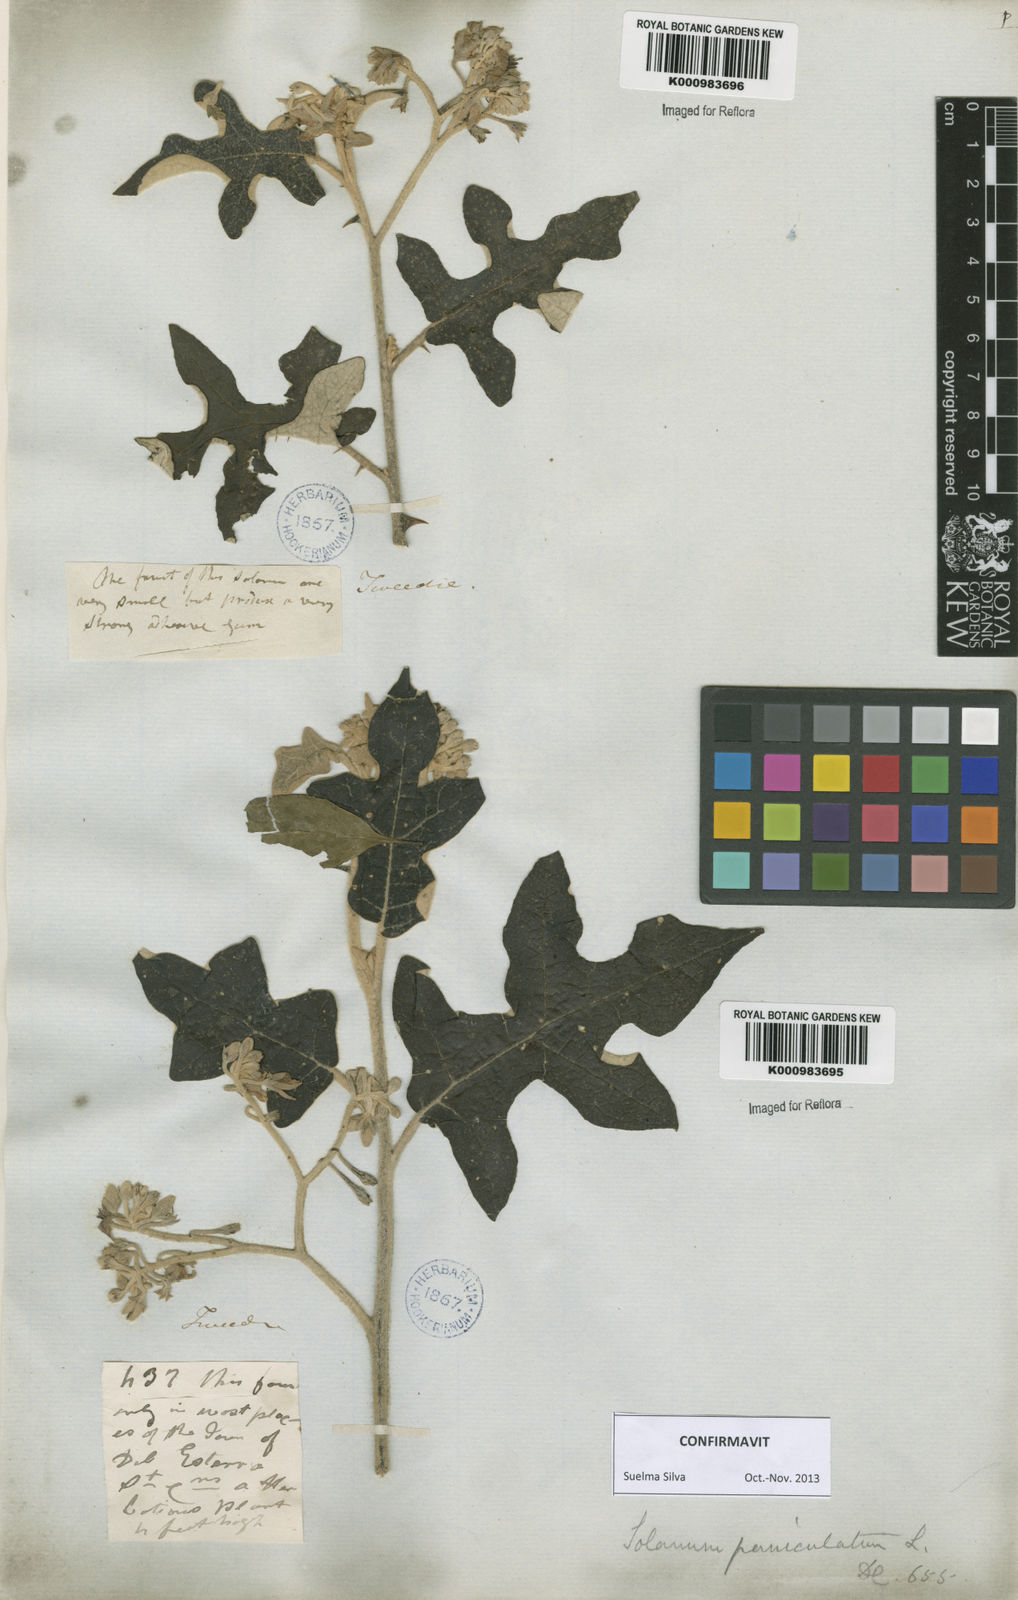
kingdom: Plantae
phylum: Tracheophyta
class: Magnoliopsida
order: Solanales
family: Solanaceae
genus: Solanum
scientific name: Solanum paniculatum
